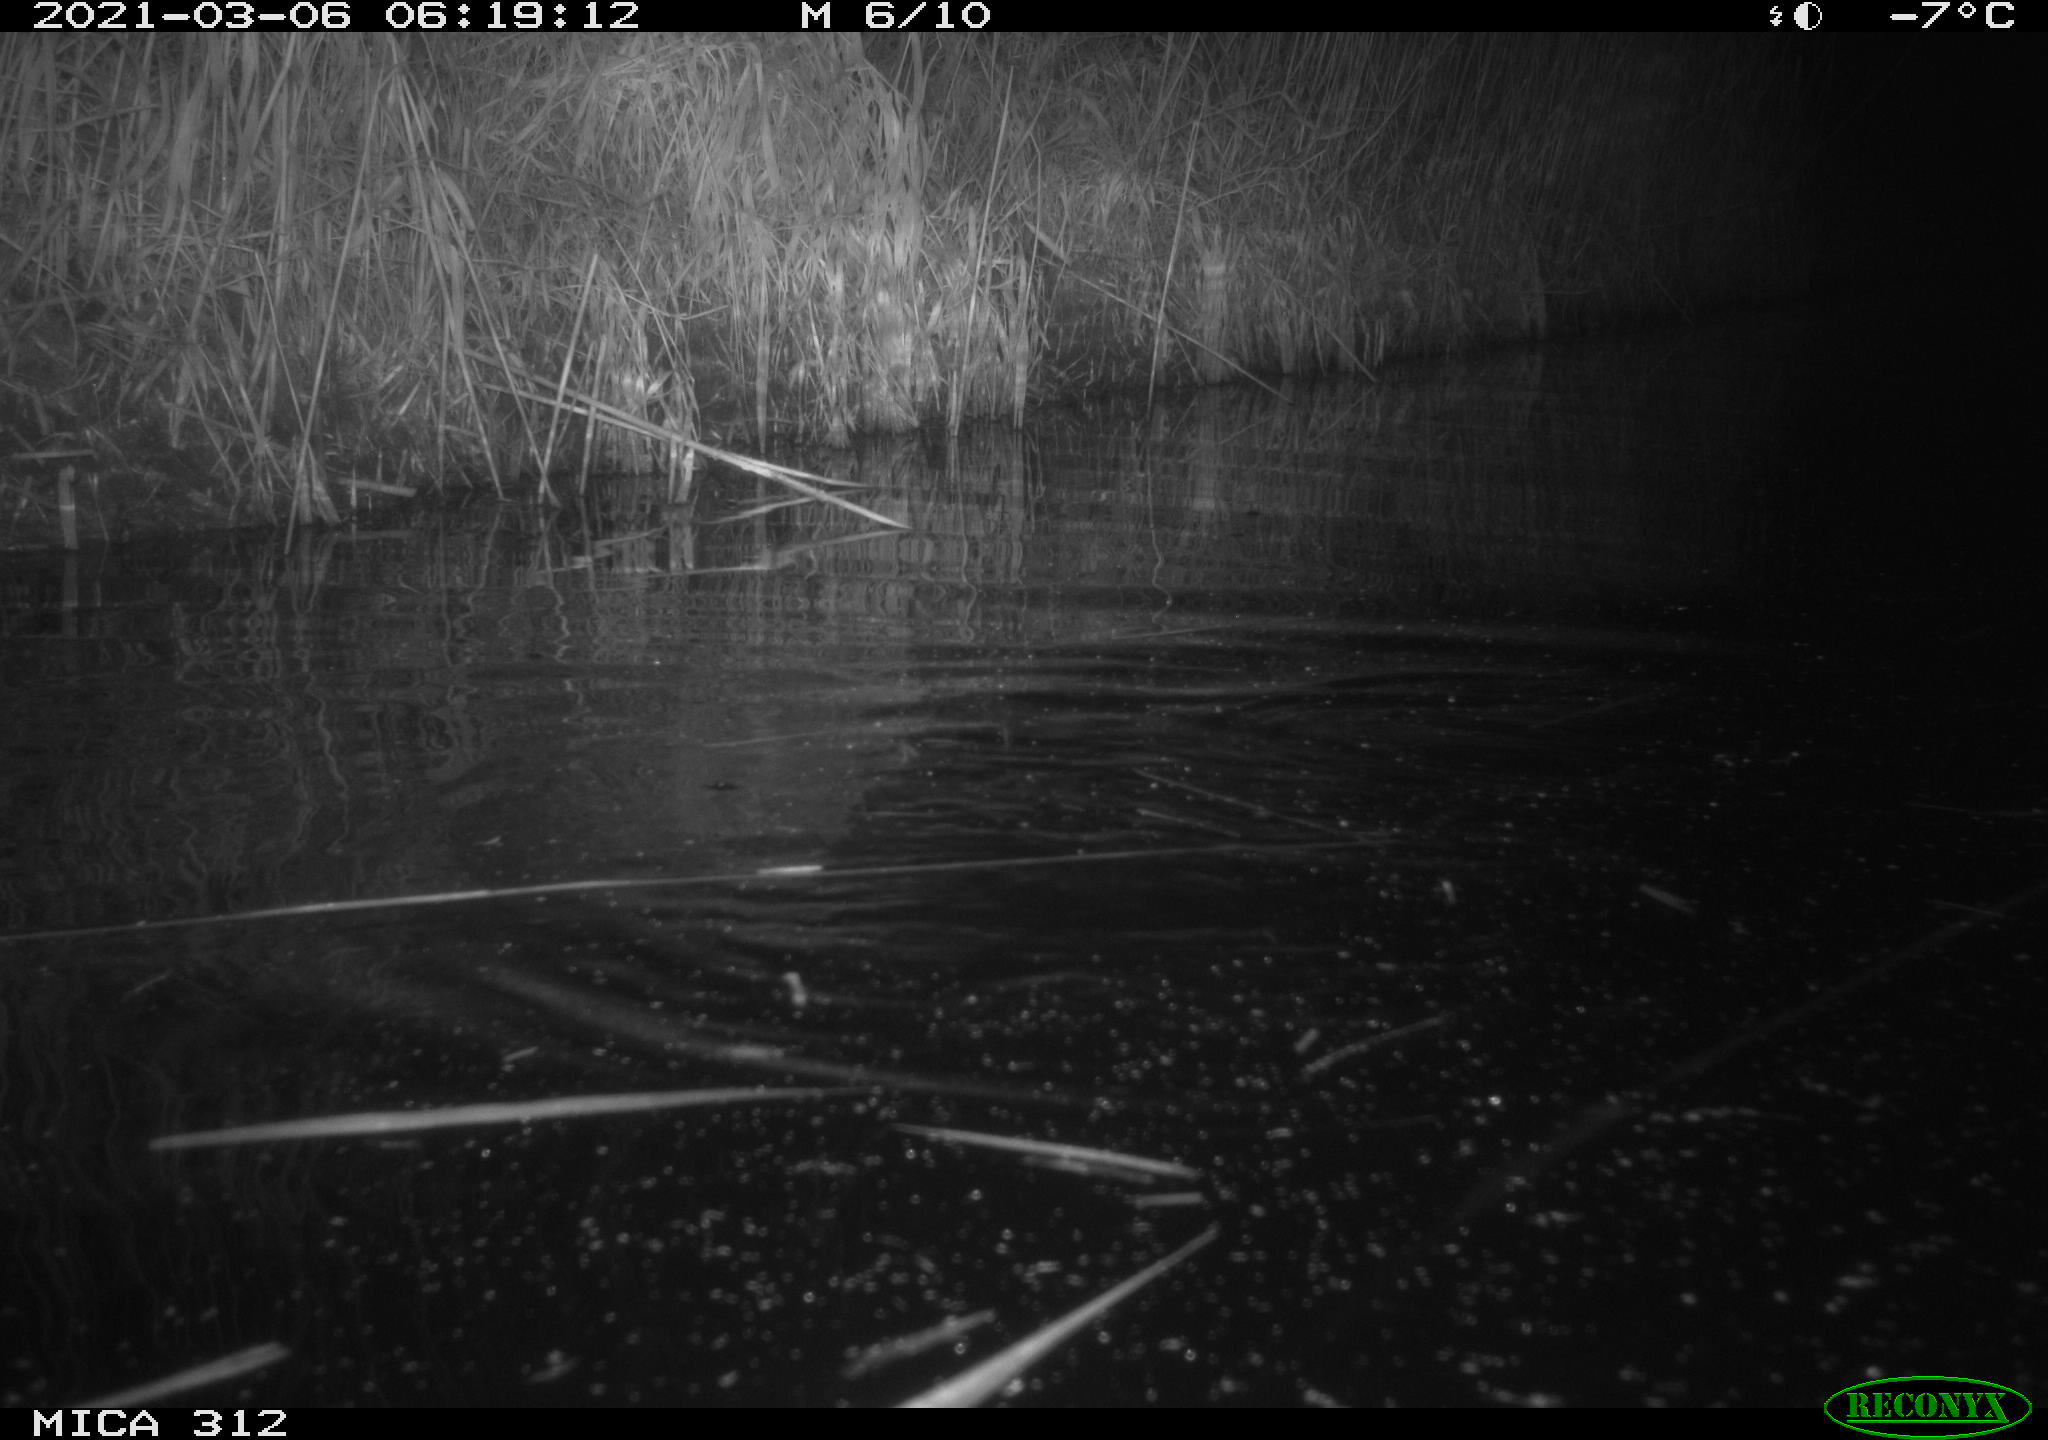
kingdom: Animalia
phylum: Chordata
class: Mammalia
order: Rodentia
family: Cricetidae
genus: Ondatra
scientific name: Ondatra zibethicus
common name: Muskrat
